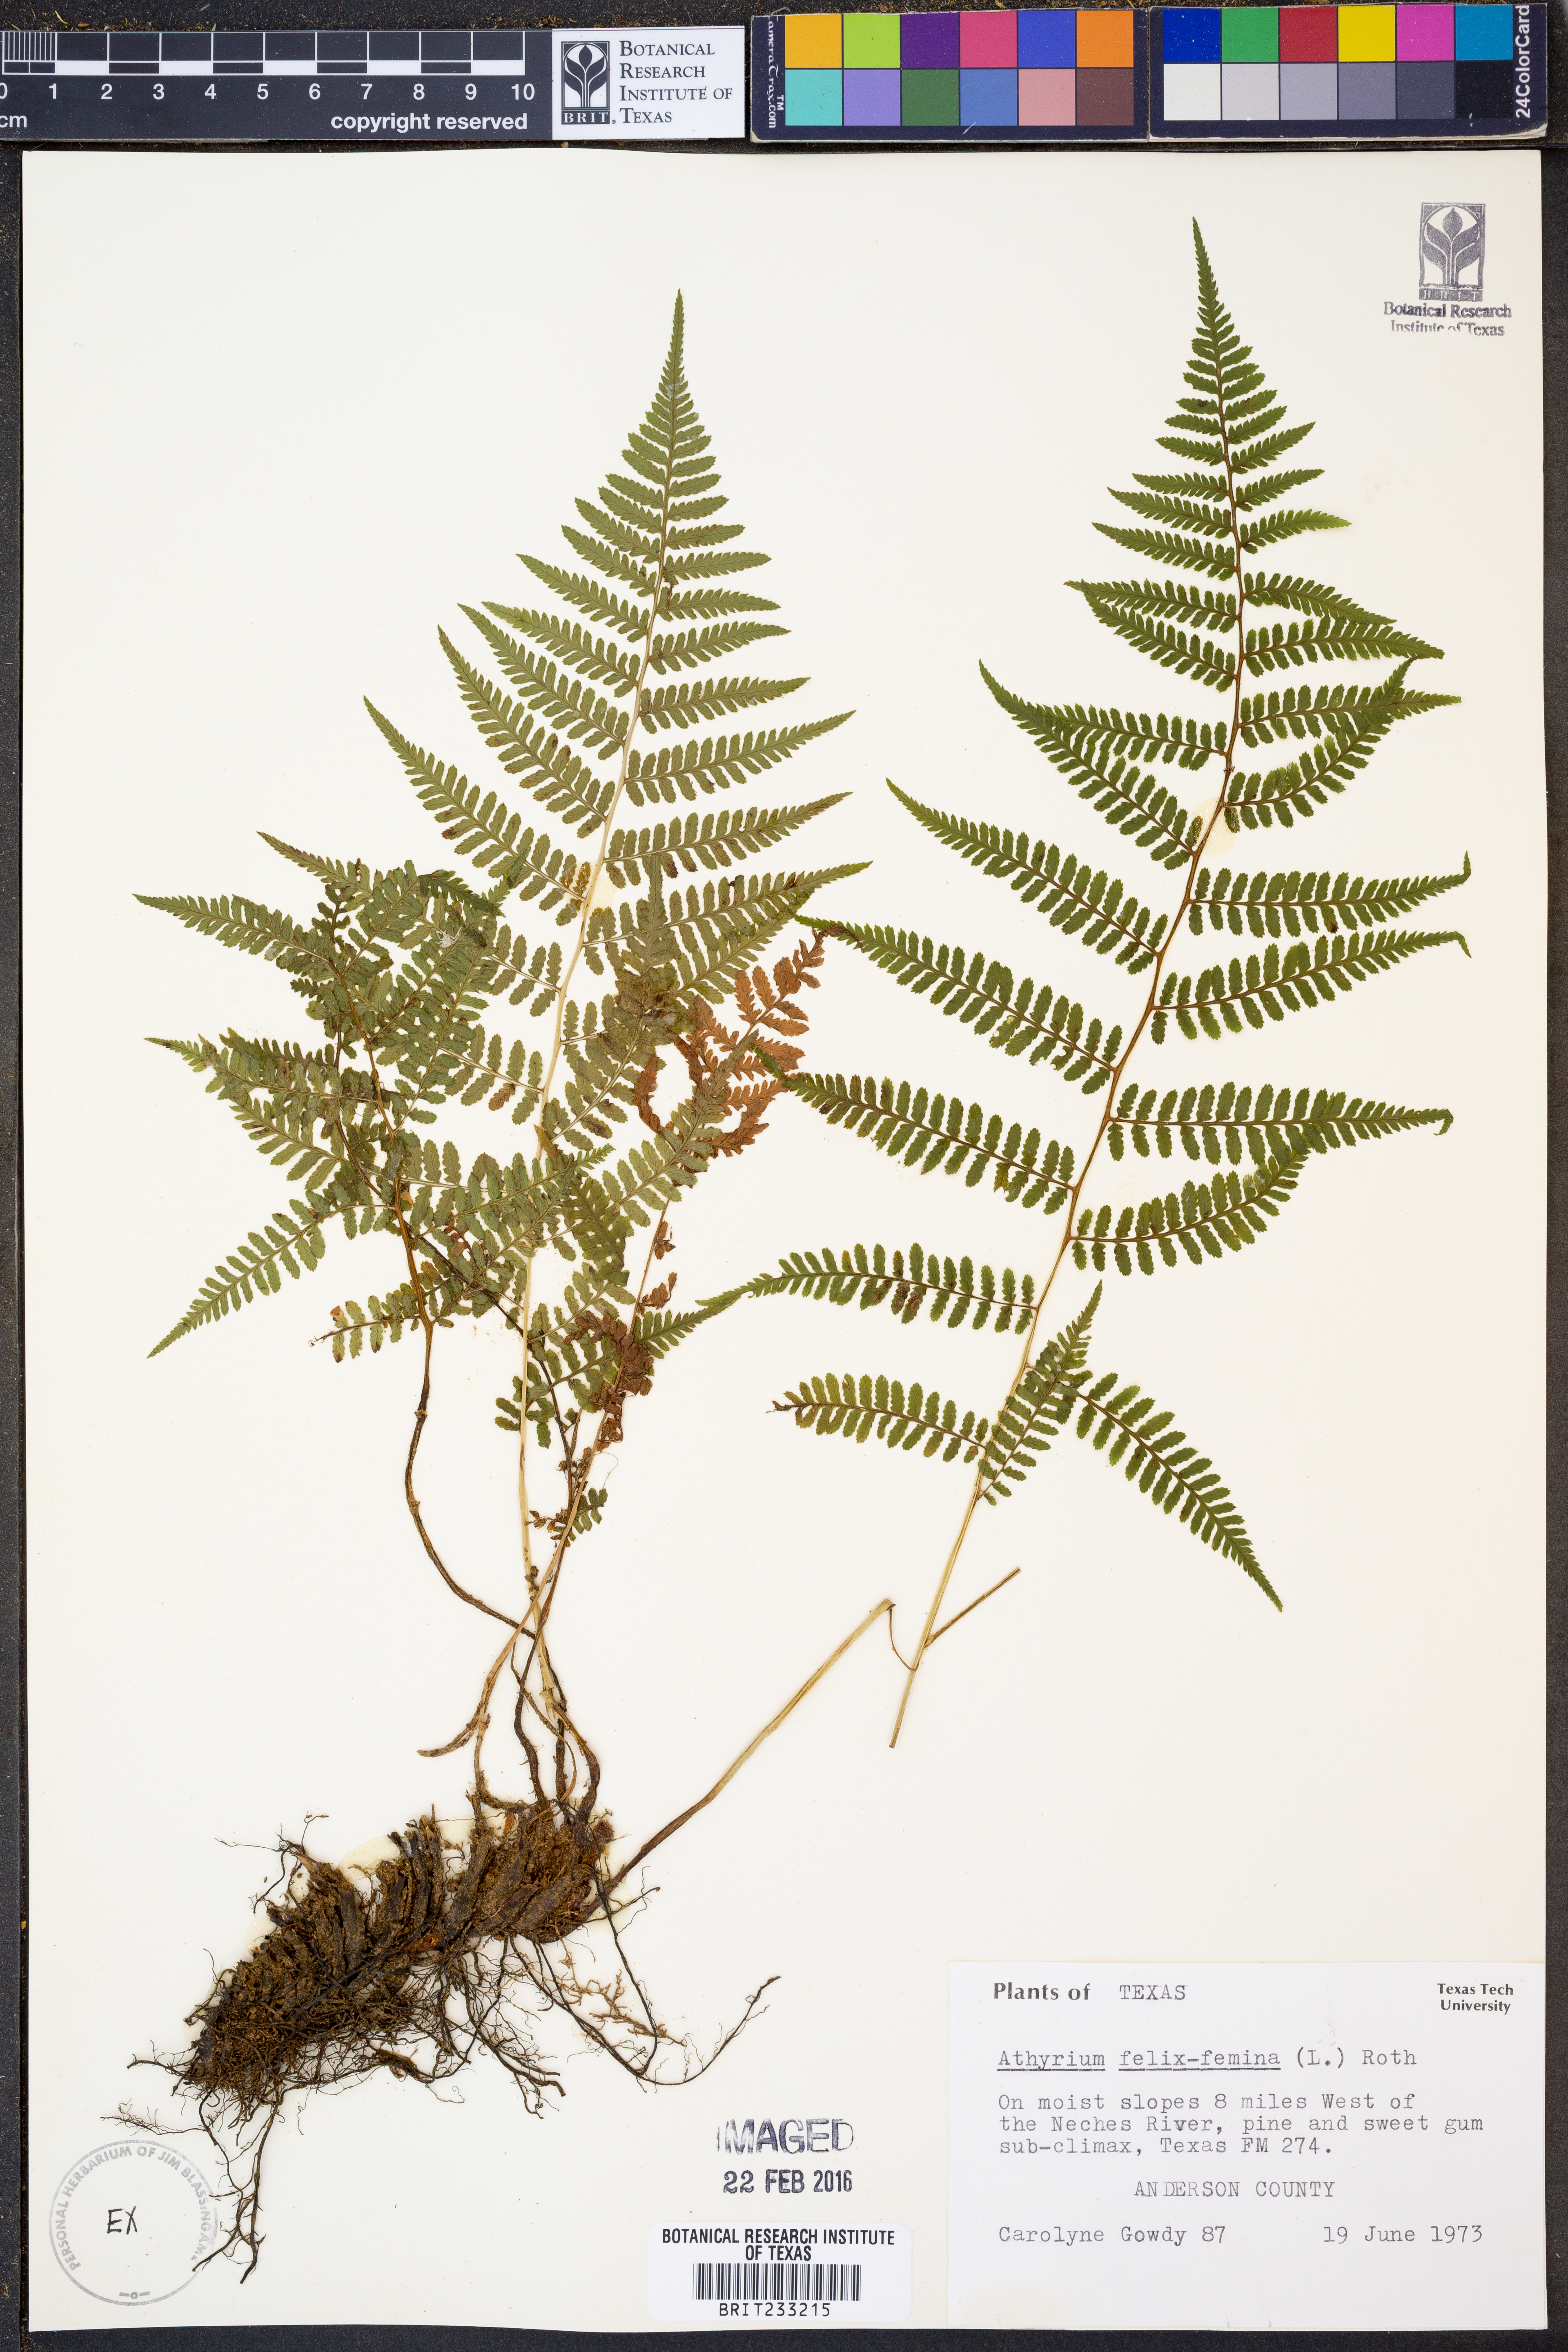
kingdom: Plantae
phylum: Tracheophyta
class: Polypodiopsida
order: Polypodiales
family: Athyriaceae
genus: Athyrium
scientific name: Athyrium filix-femina
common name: Lady fern
